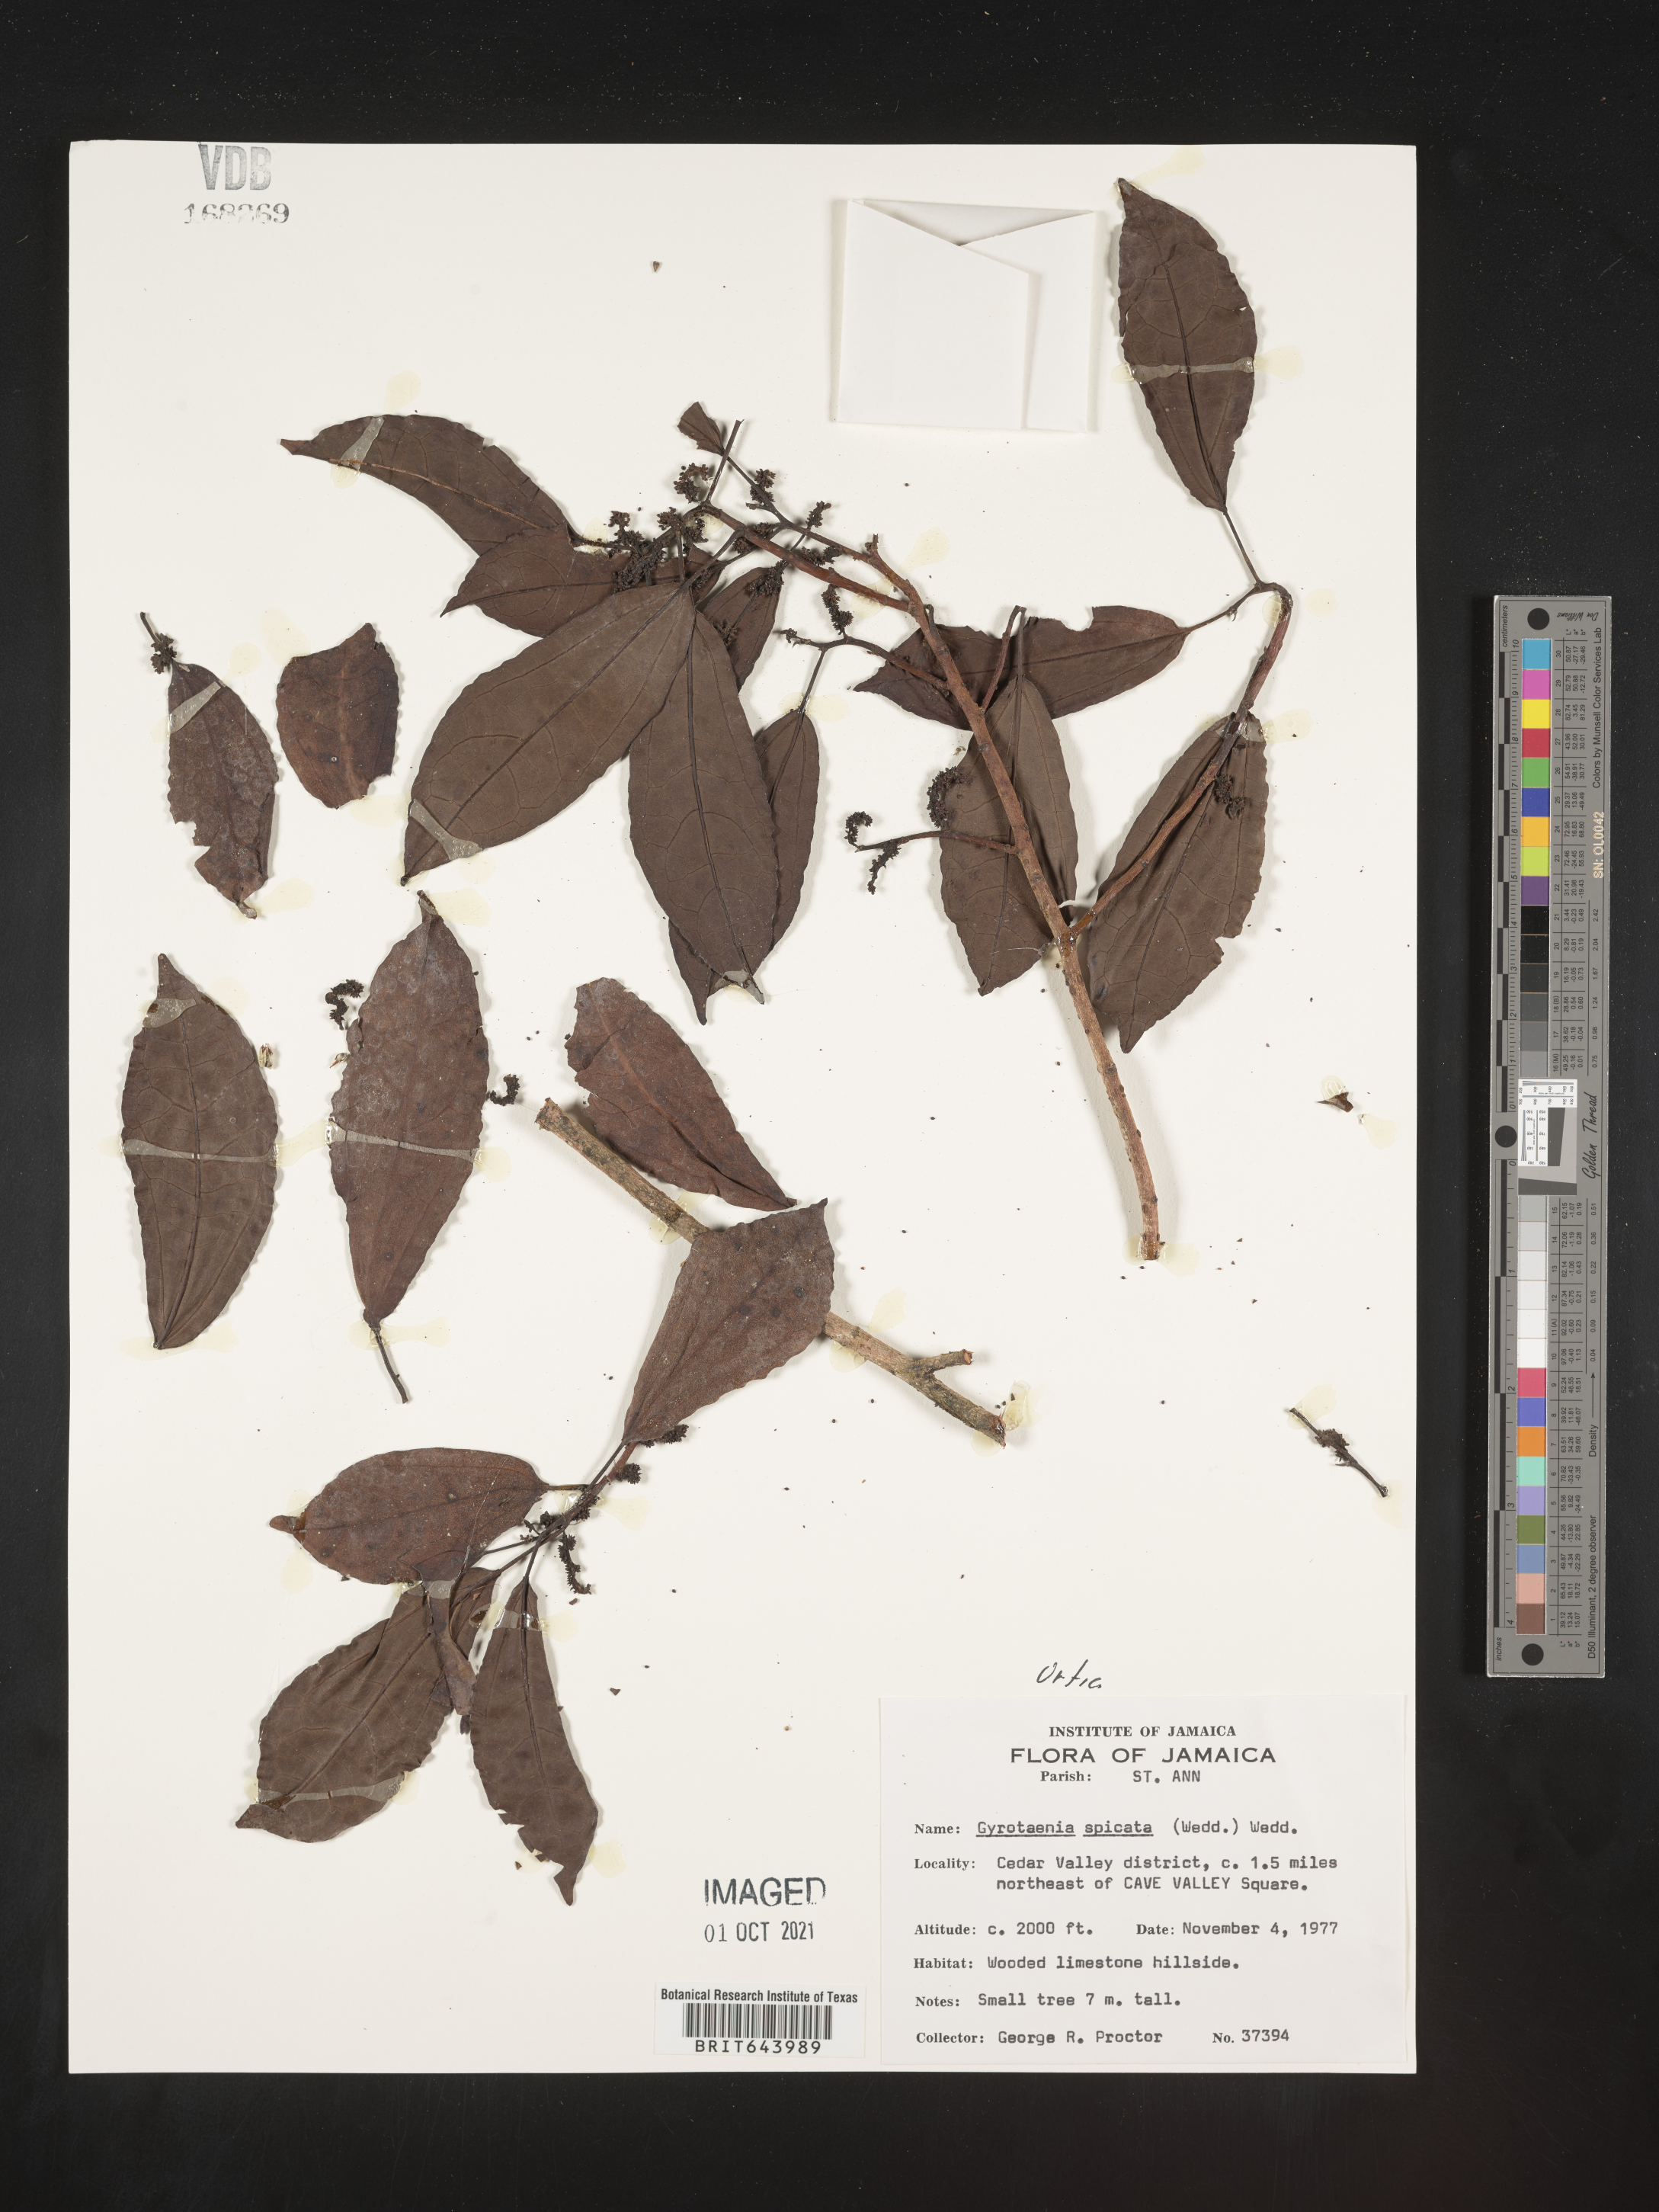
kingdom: Plantae
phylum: Tracheophyta
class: Magnoliopsida
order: Rosales
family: Urticaceae
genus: Gyrotaenia
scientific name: Gyrotaenia
